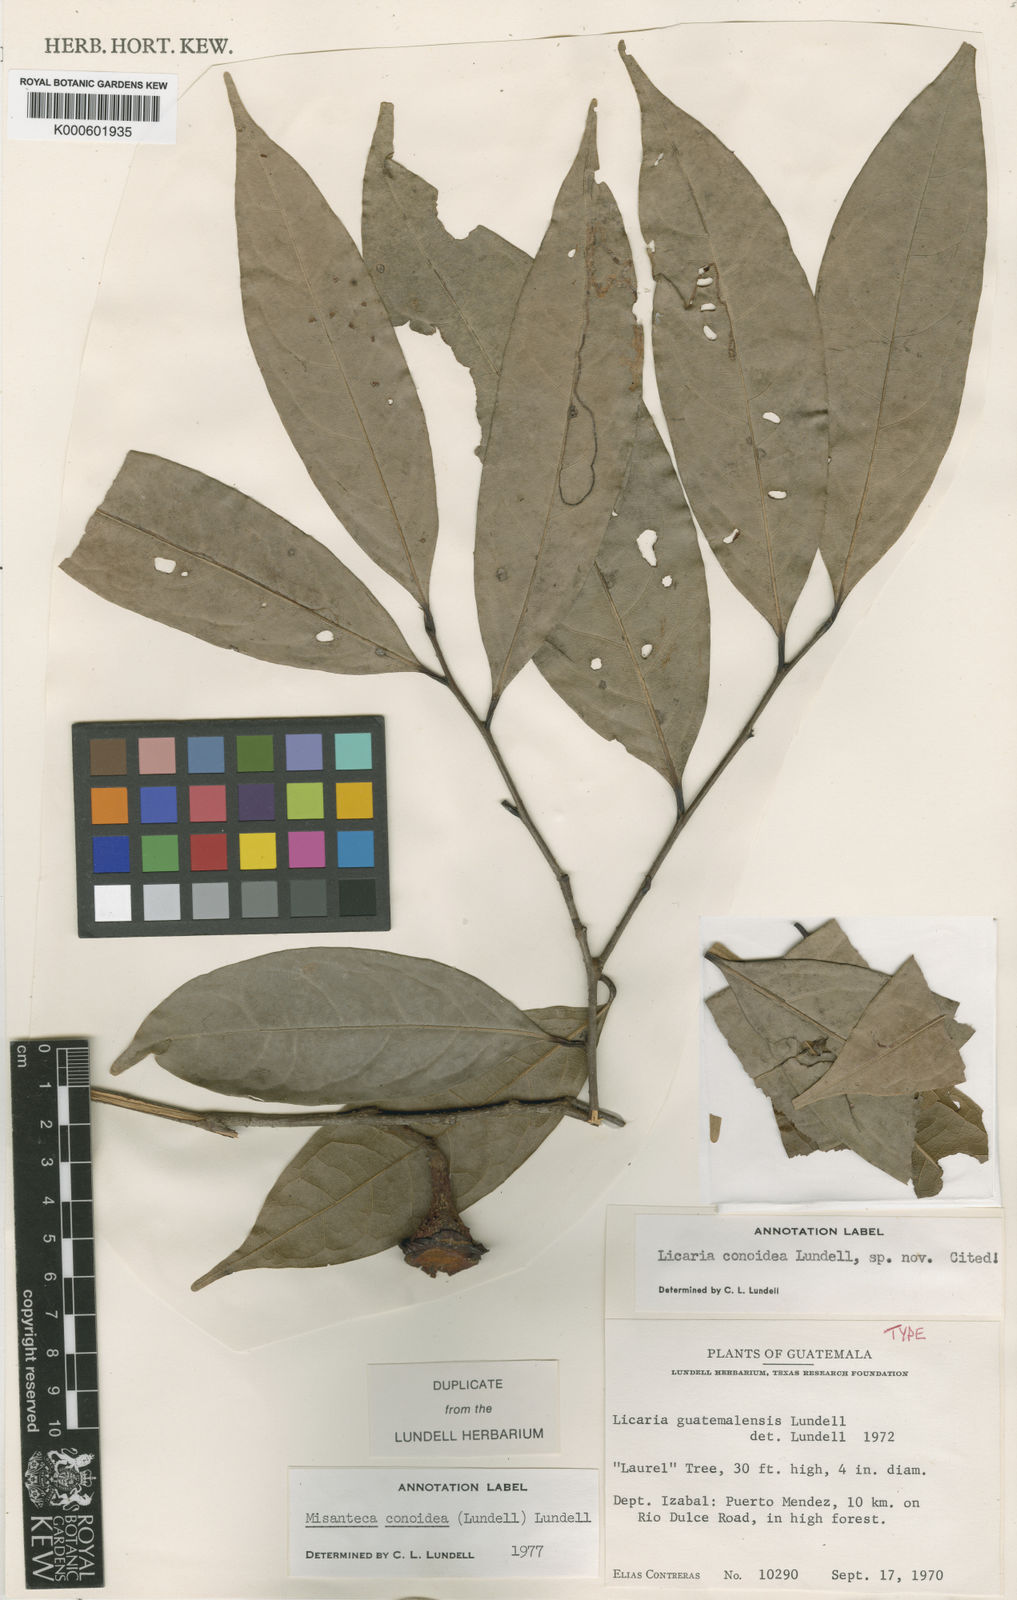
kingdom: Plantae
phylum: Tracheophyta
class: Magnoliopsida
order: Laurales
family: Lauraceae
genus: Licaria
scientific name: Licaria conoidea
